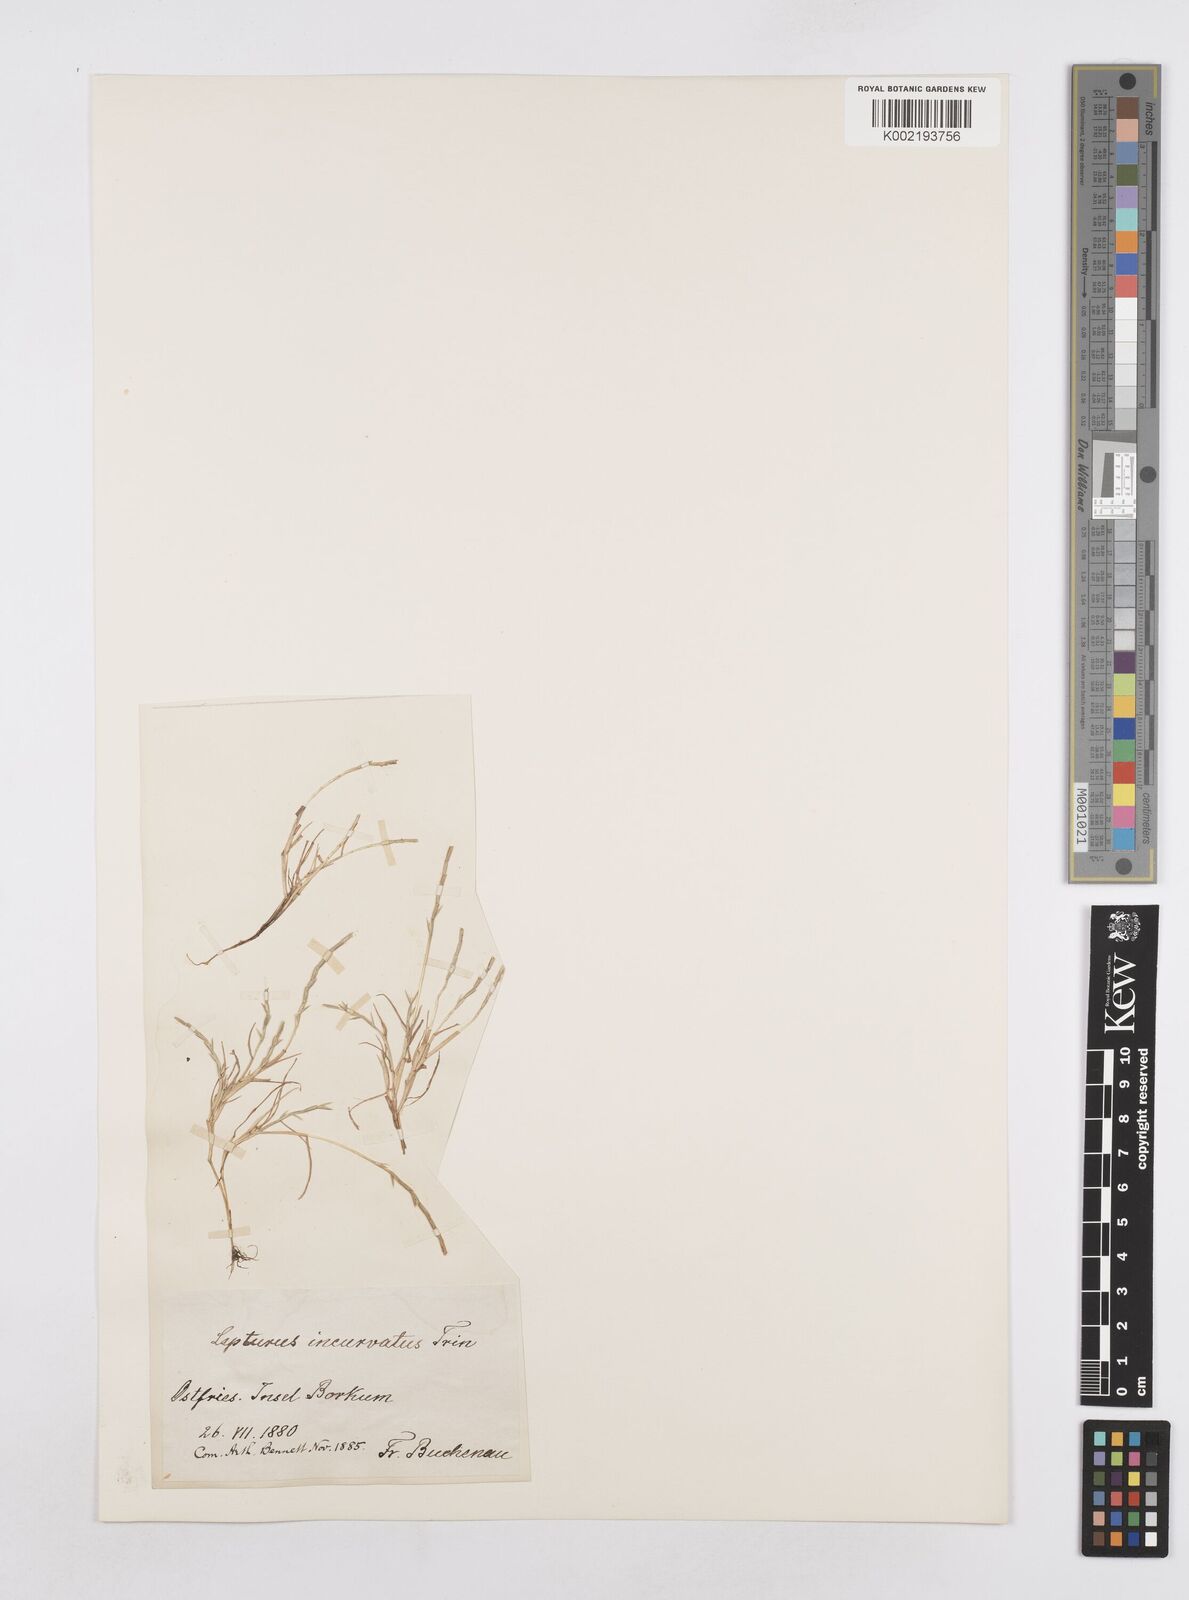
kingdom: Plantae
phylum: Tracheophyta
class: Liliopsida
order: Poales
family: Poaceae
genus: Parapholis
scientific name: Parapholis strigosa
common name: Hard-grass
